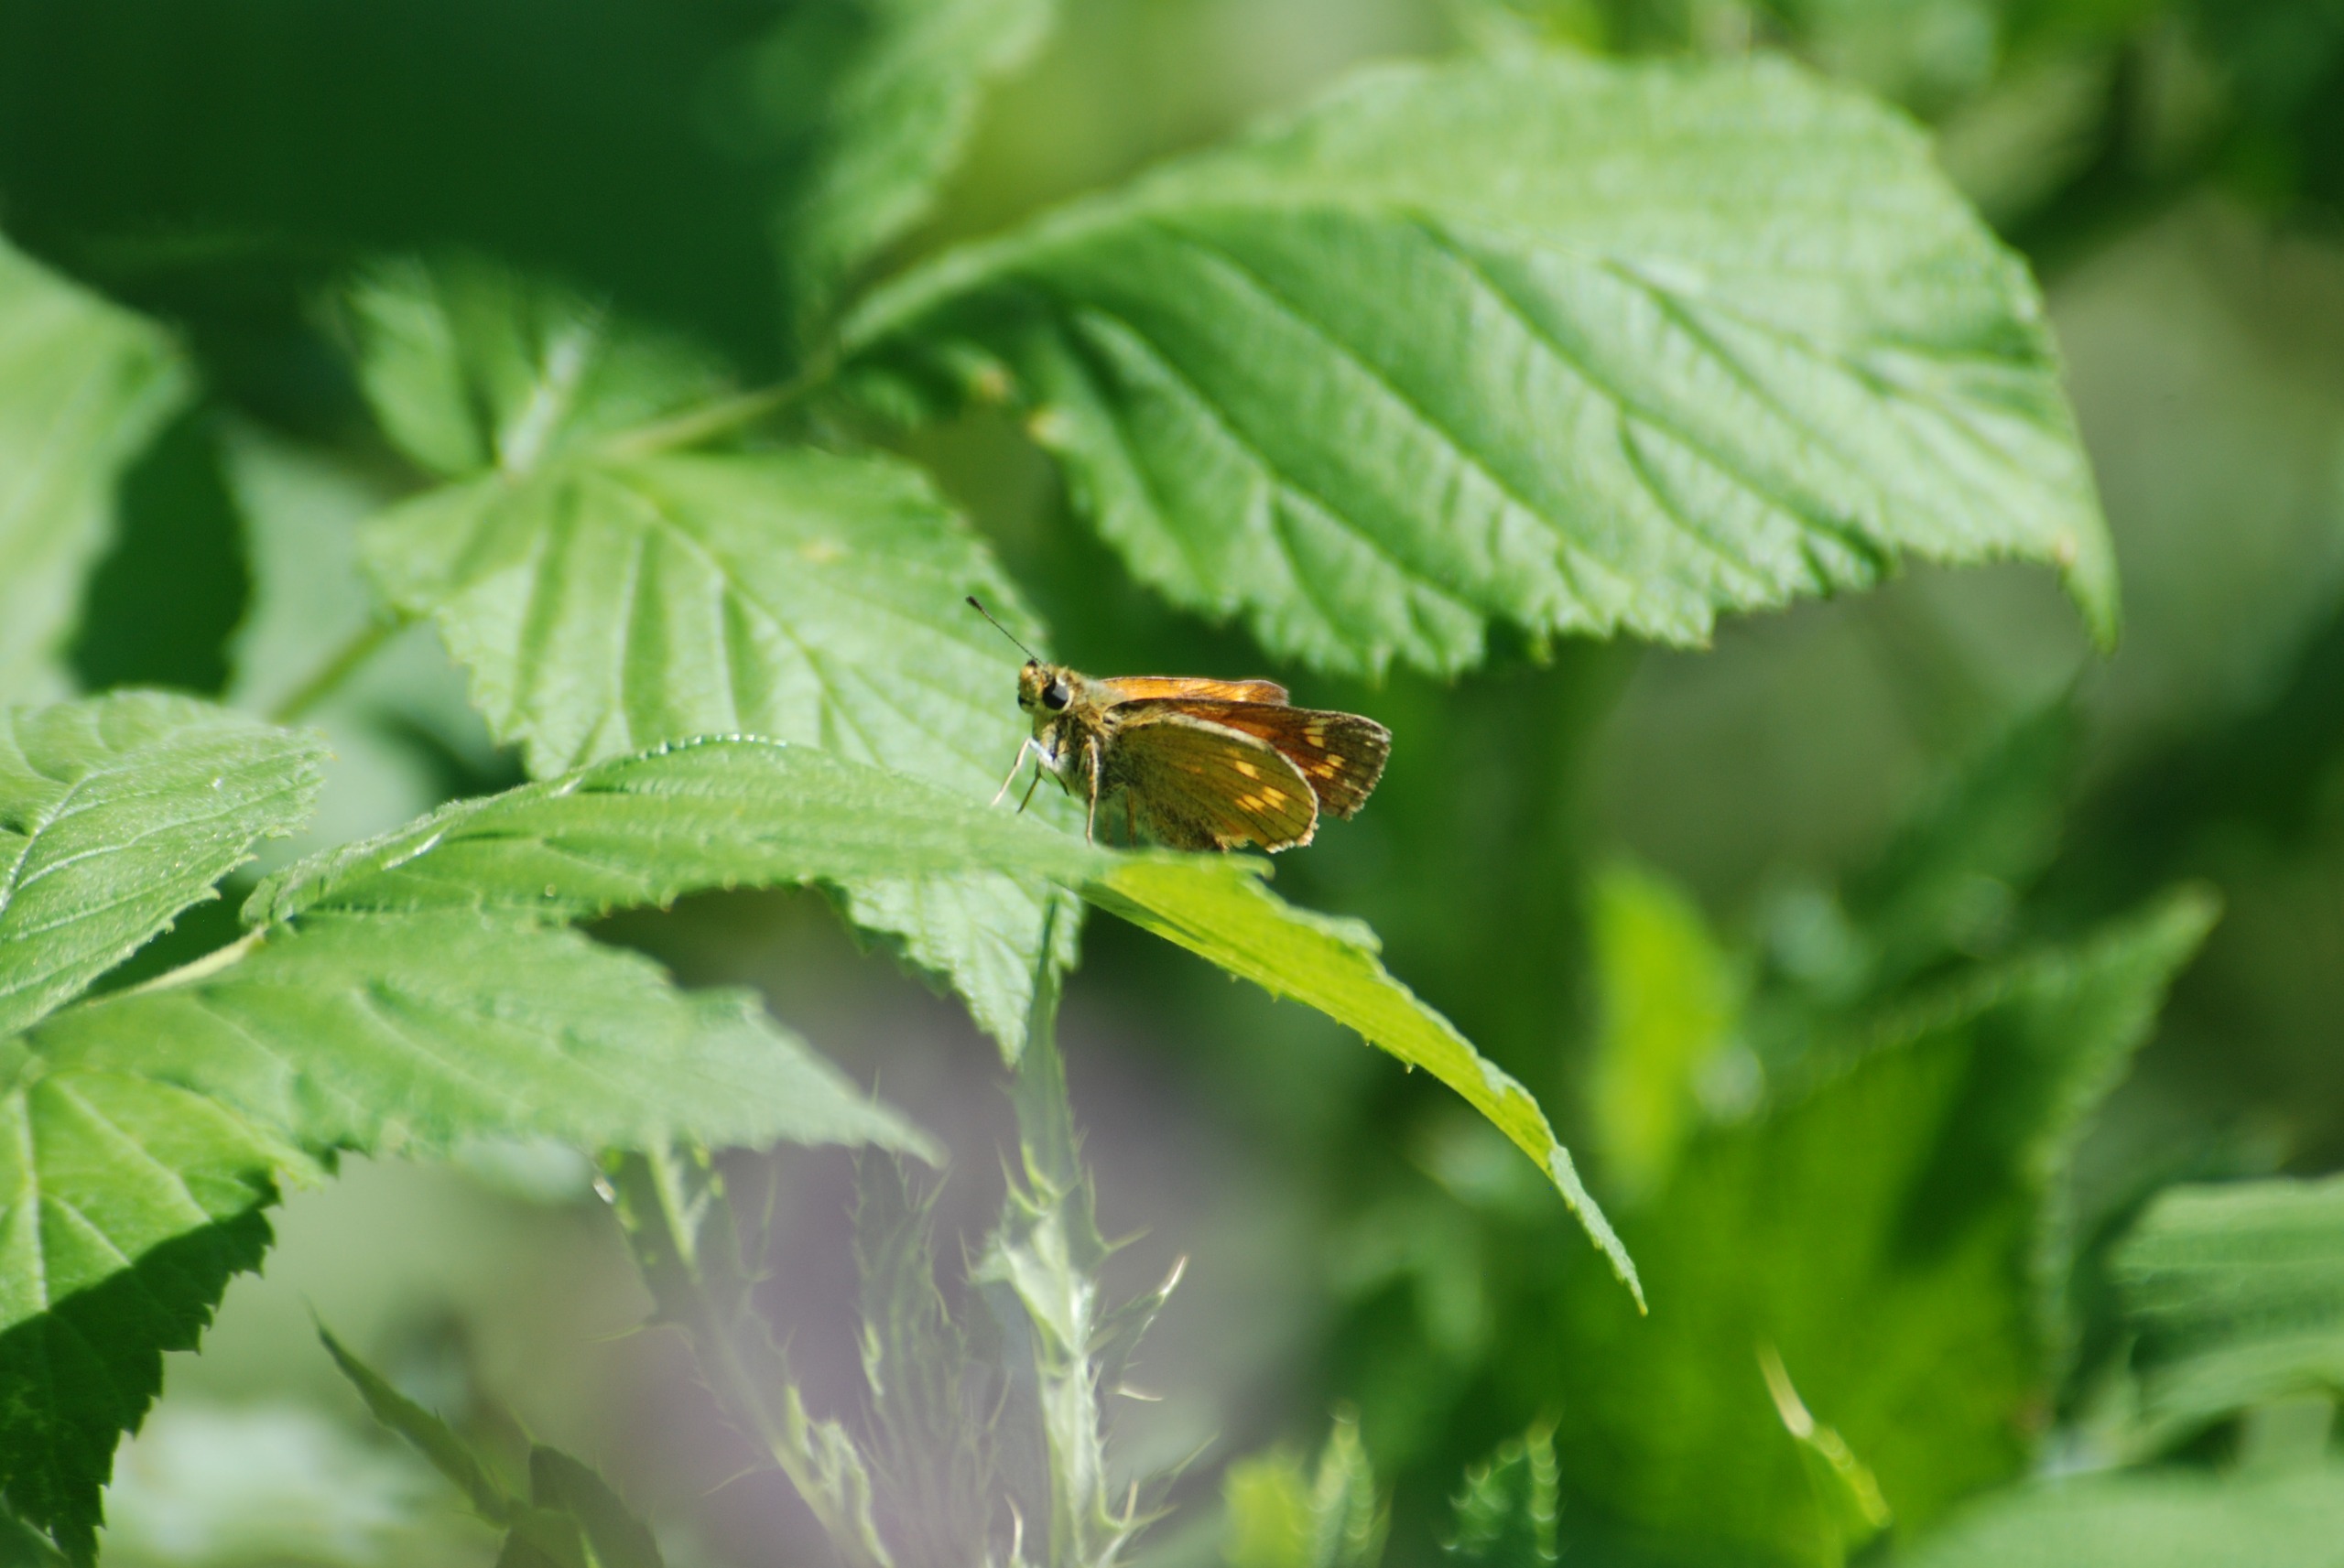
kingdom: Animalia
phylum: Arthropoda
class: Insecta
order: Lepidoptera
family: Hesperiidae
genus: Ochlodes
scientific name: Ochlodes venata
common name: Stor bredpande
